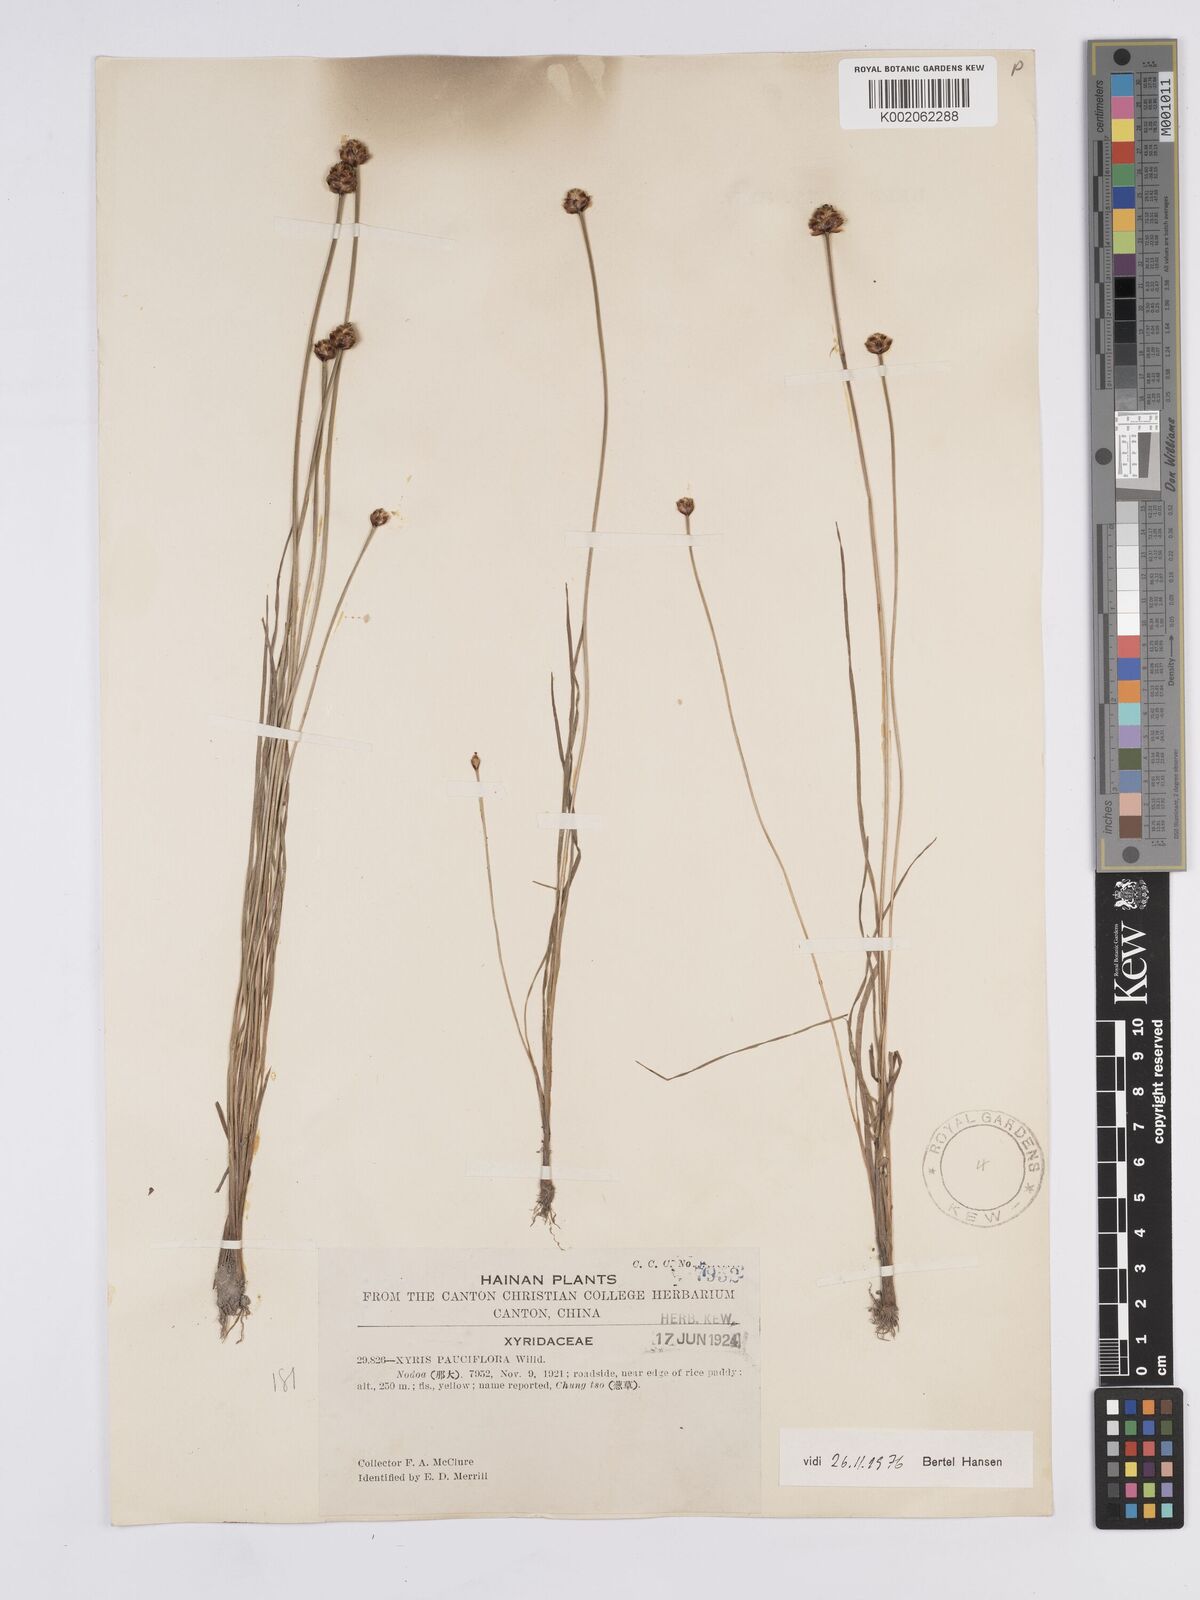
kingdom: Plantae
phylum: Tracheophyta
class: Liliopsida
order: Poales
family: Xyridaceae
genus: Xyris
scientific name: Xyris pauciflora
